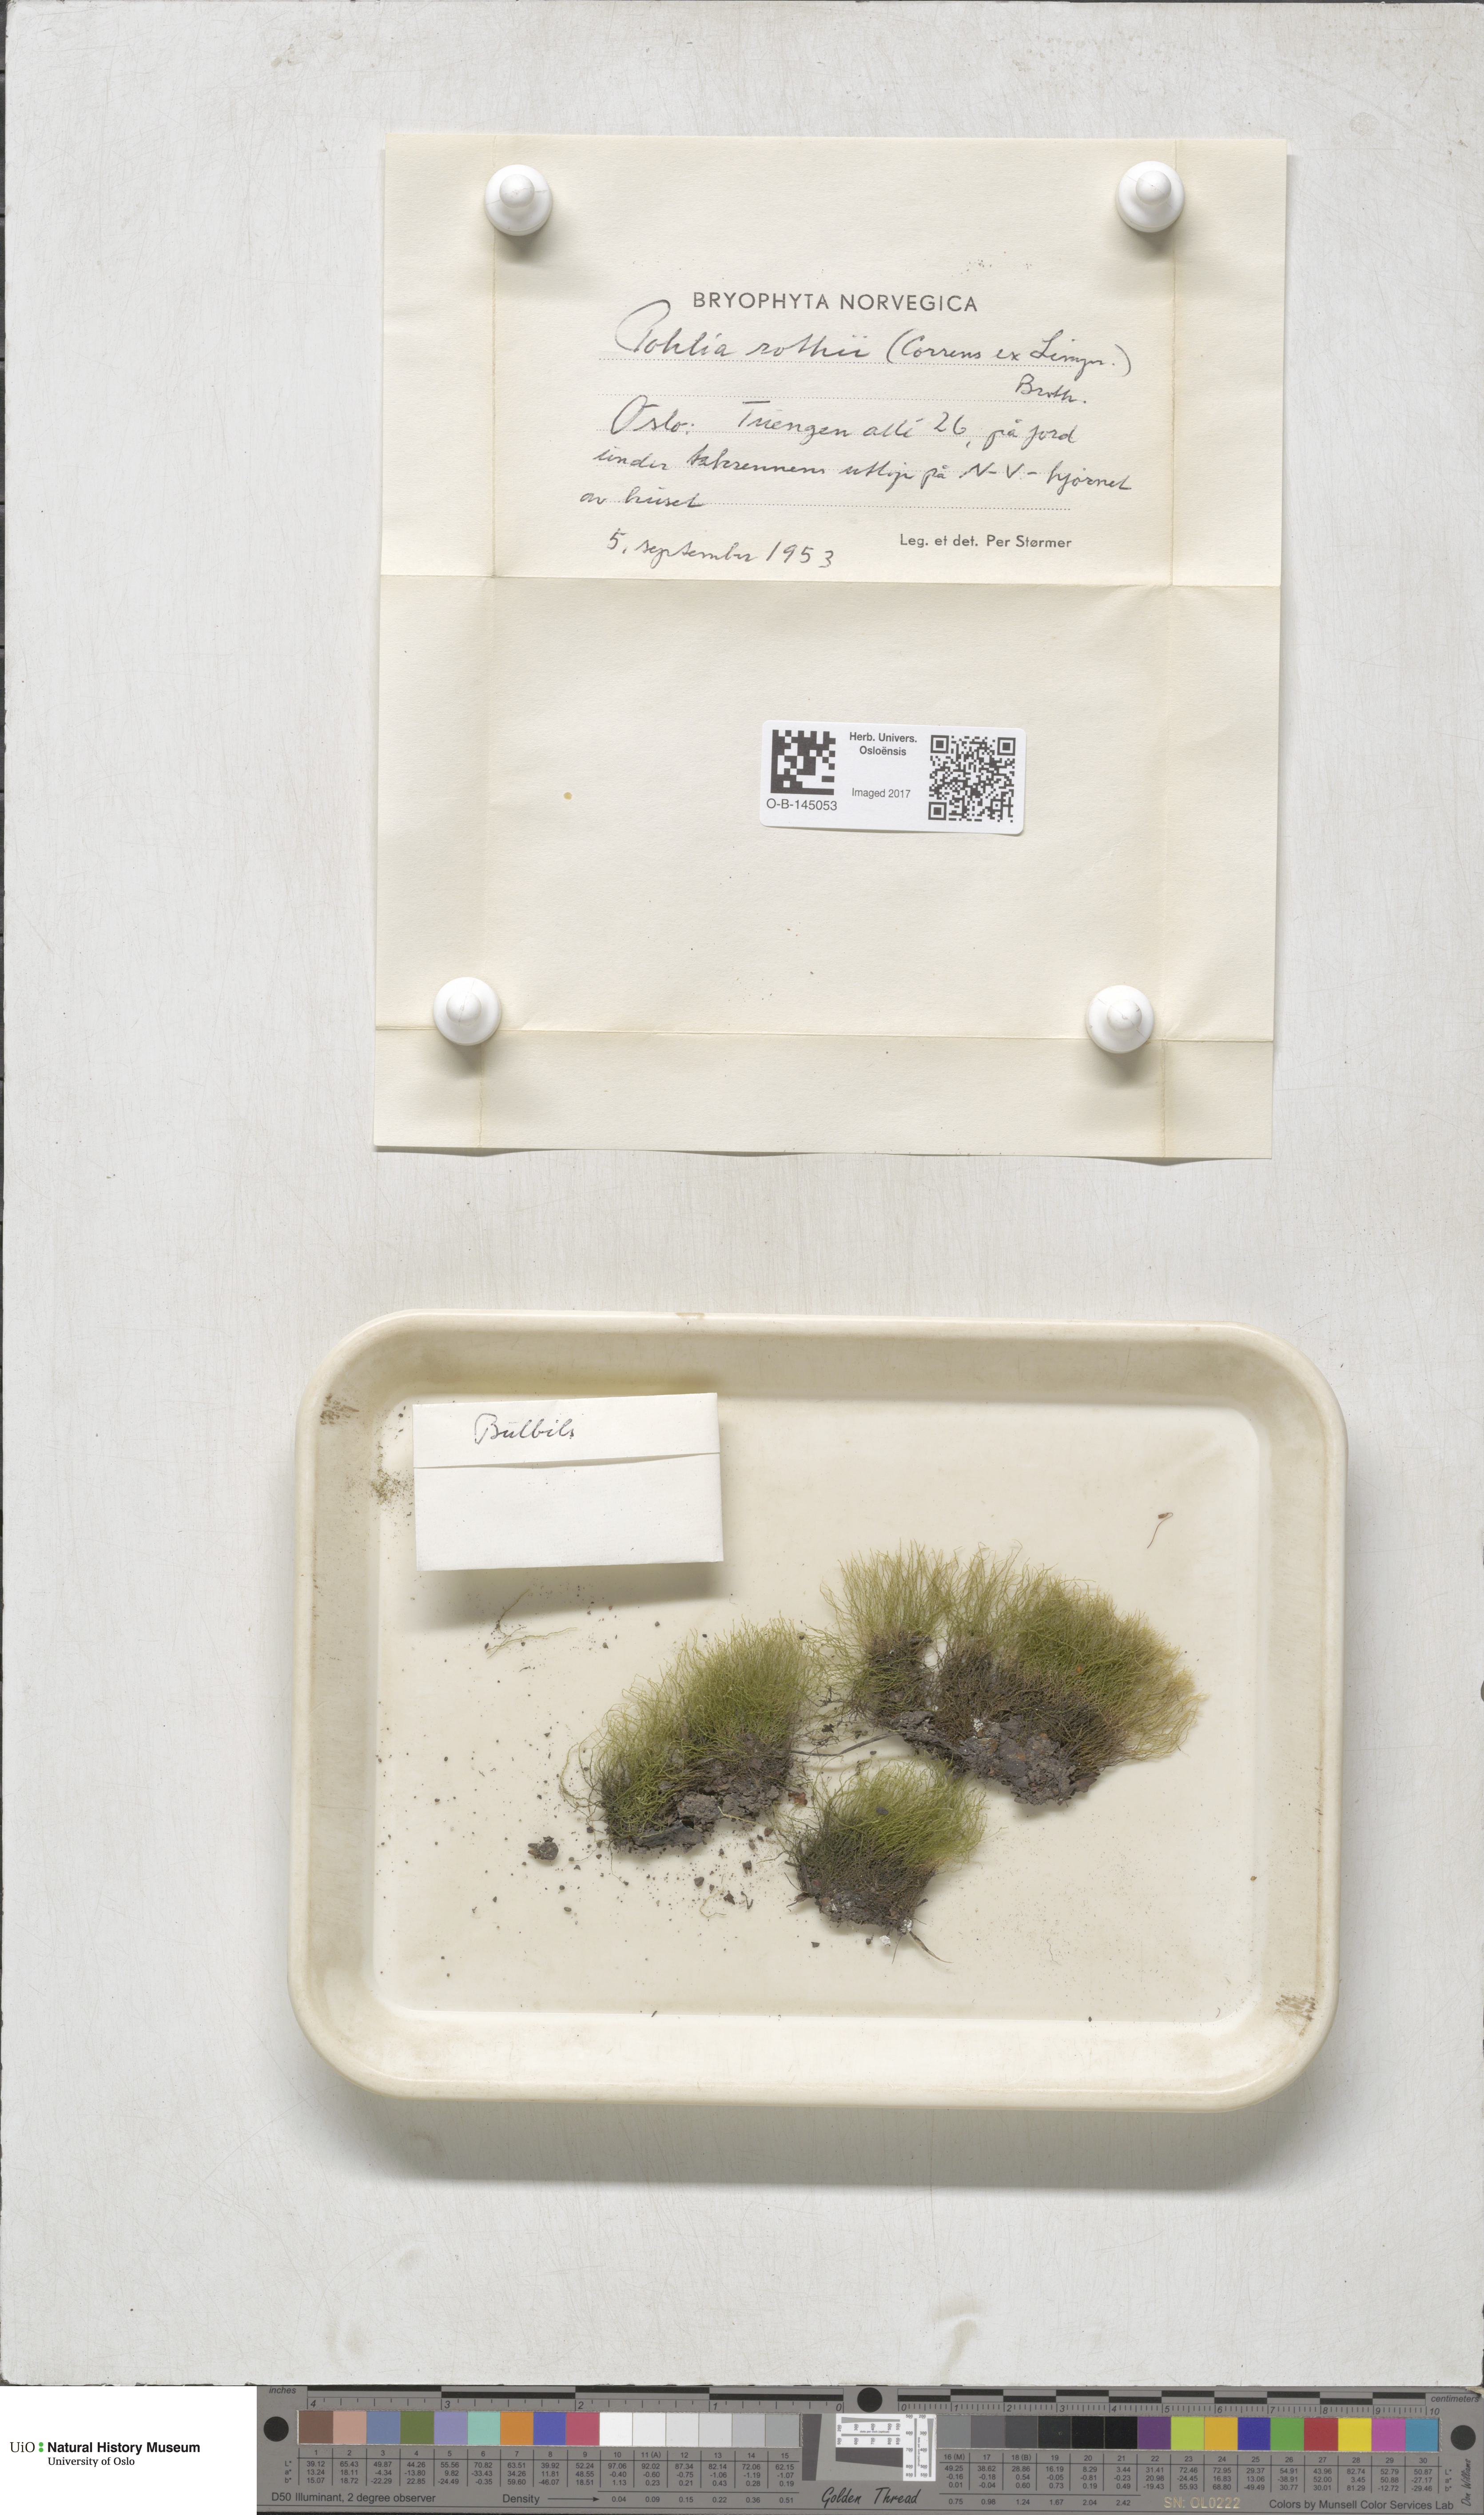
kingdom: Plantae
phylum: Bryophyta
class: Bryopsida
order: Bryales
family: Mniaceae
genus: Pohlia
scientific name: Pohlia filum
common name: Slender nodding moss
